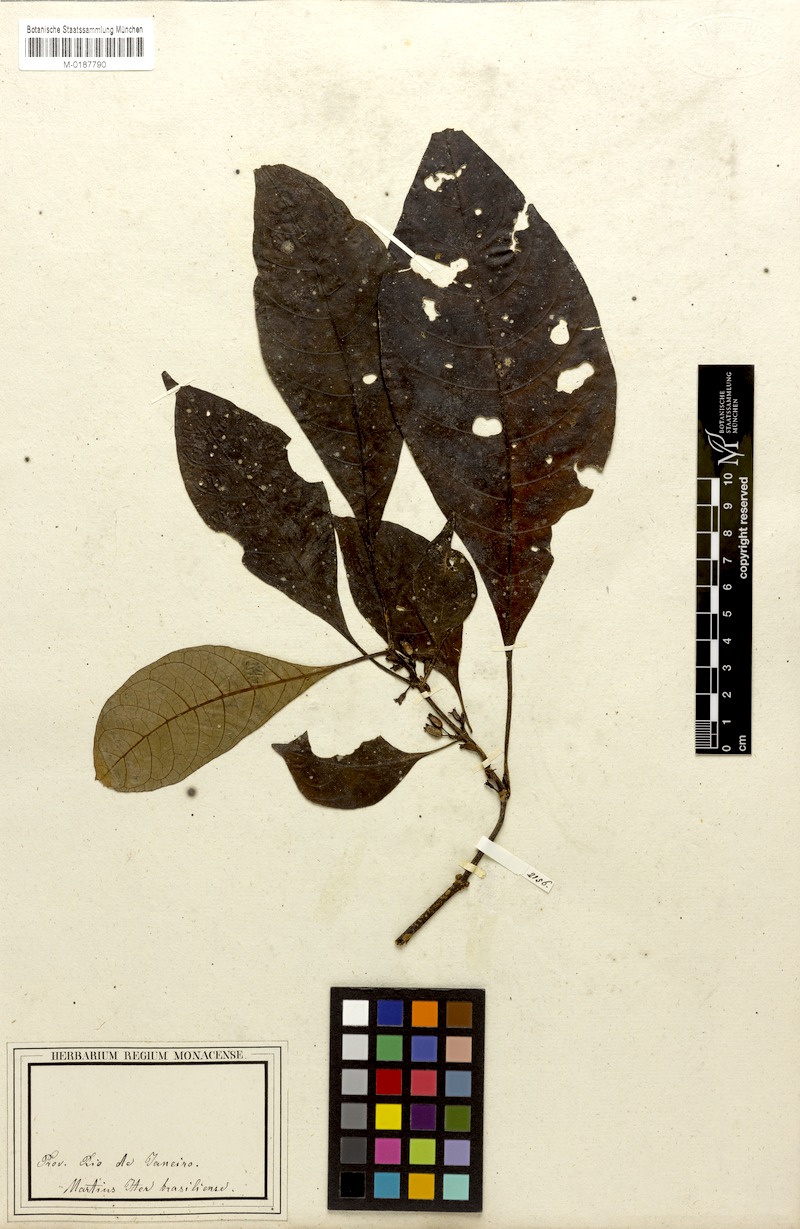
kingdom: Plantae
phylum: Tracheophyta
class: Magnoliopsida
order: Gentianales
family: Rubiaceae
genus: Hoffmannia
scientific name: Hoffmannia peckii
